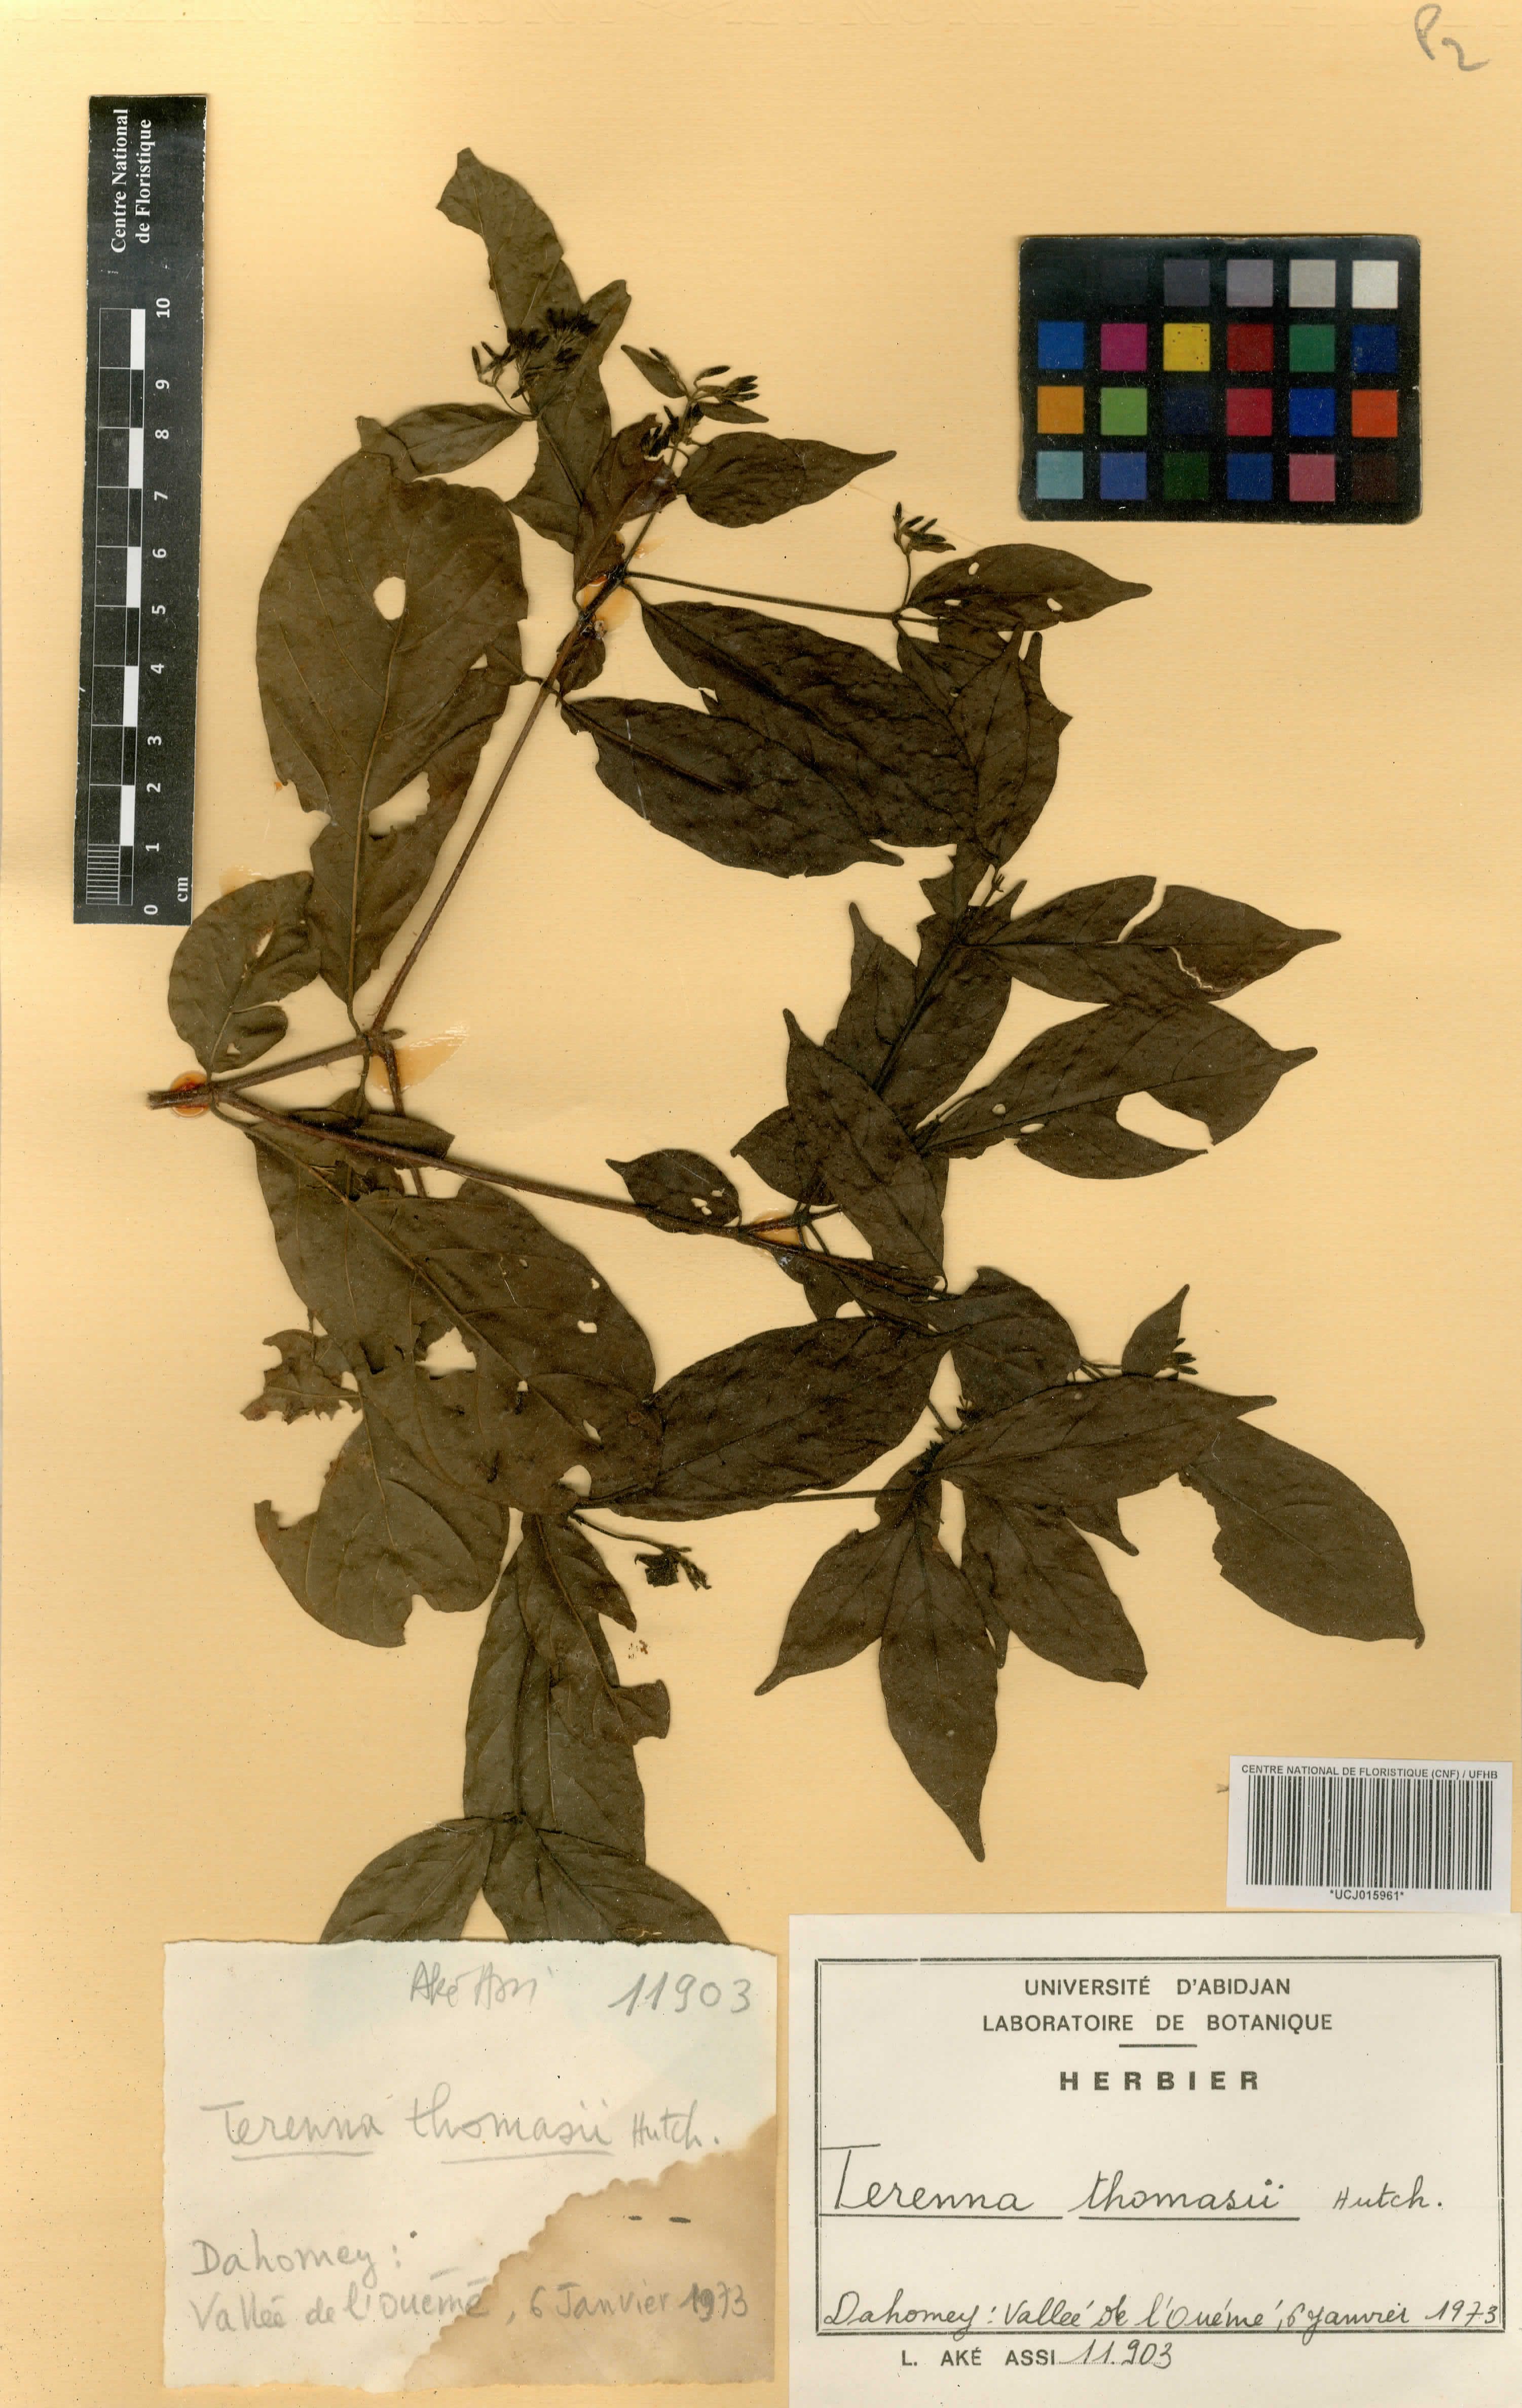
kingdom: Plantae
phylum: Tracheophyta
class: Magnoliopsida
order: Gentianales
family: Rubiaceae
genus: Tarenna
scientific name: Tarenna thomasii
